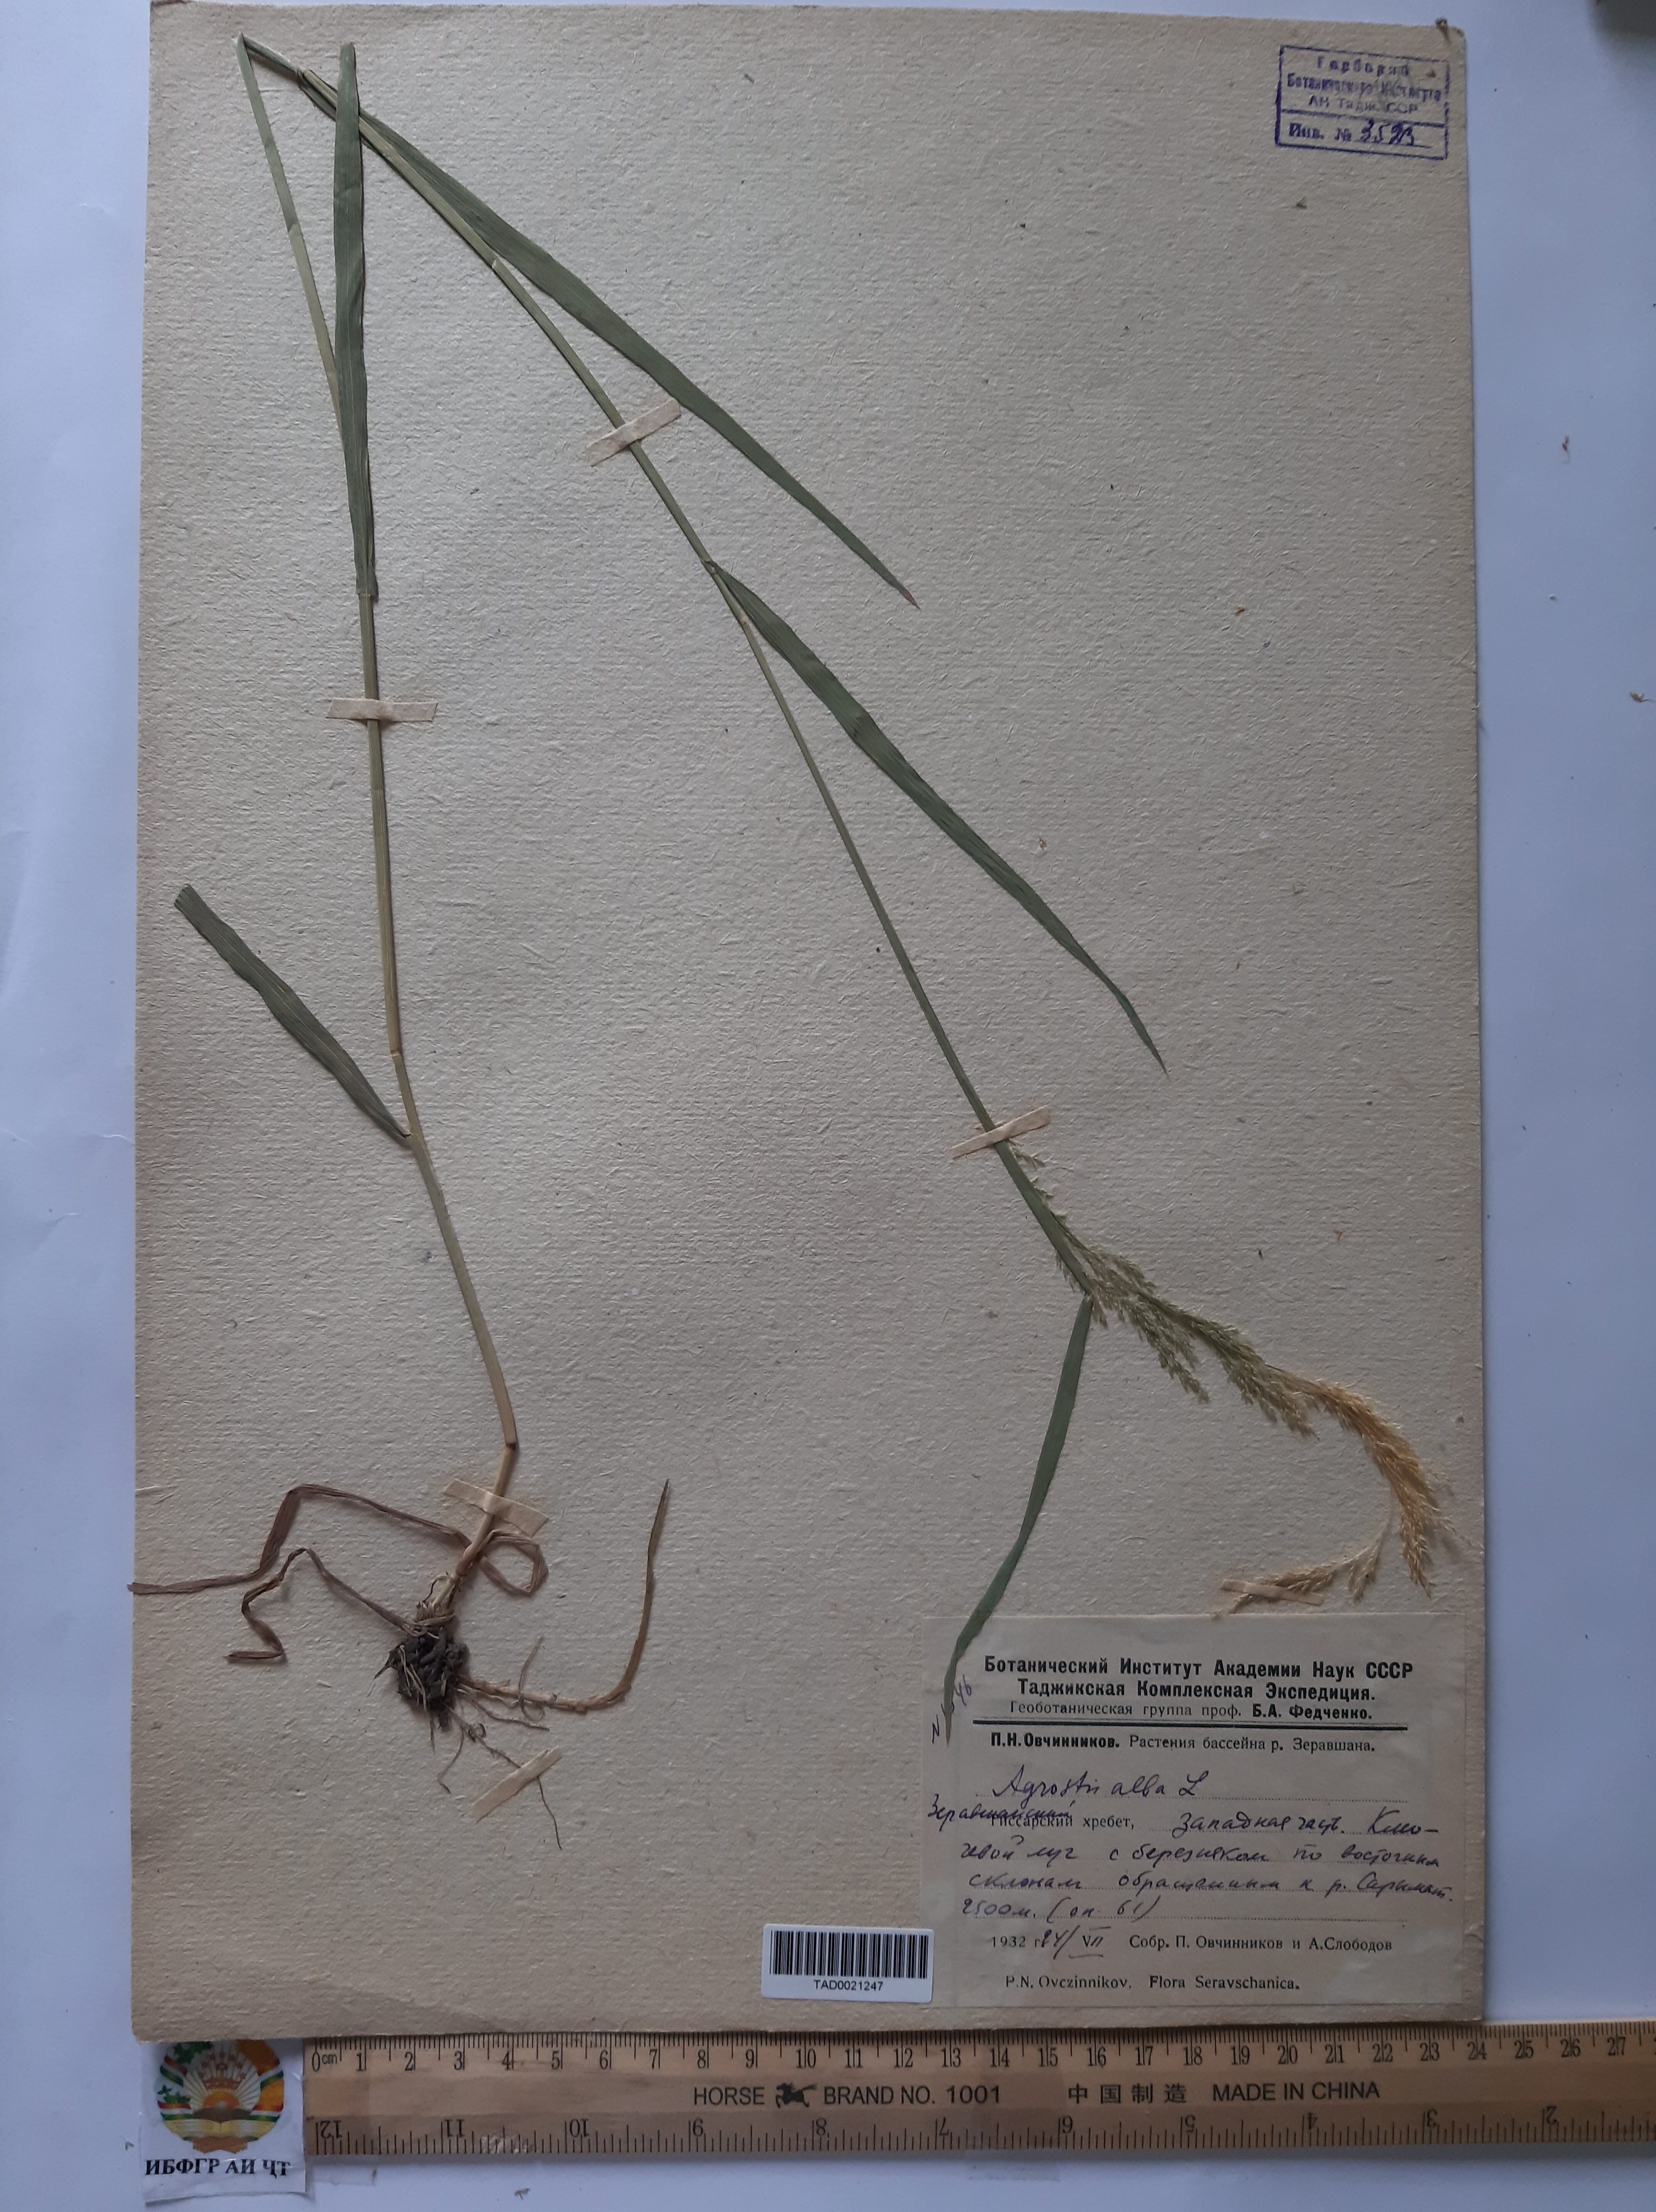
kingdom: Plantae
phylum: Tracheophyta
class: Liliopsida
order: Poales
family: Poaceae
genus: Poa
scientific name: Poa nemoralis
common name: Wood bluegrass
